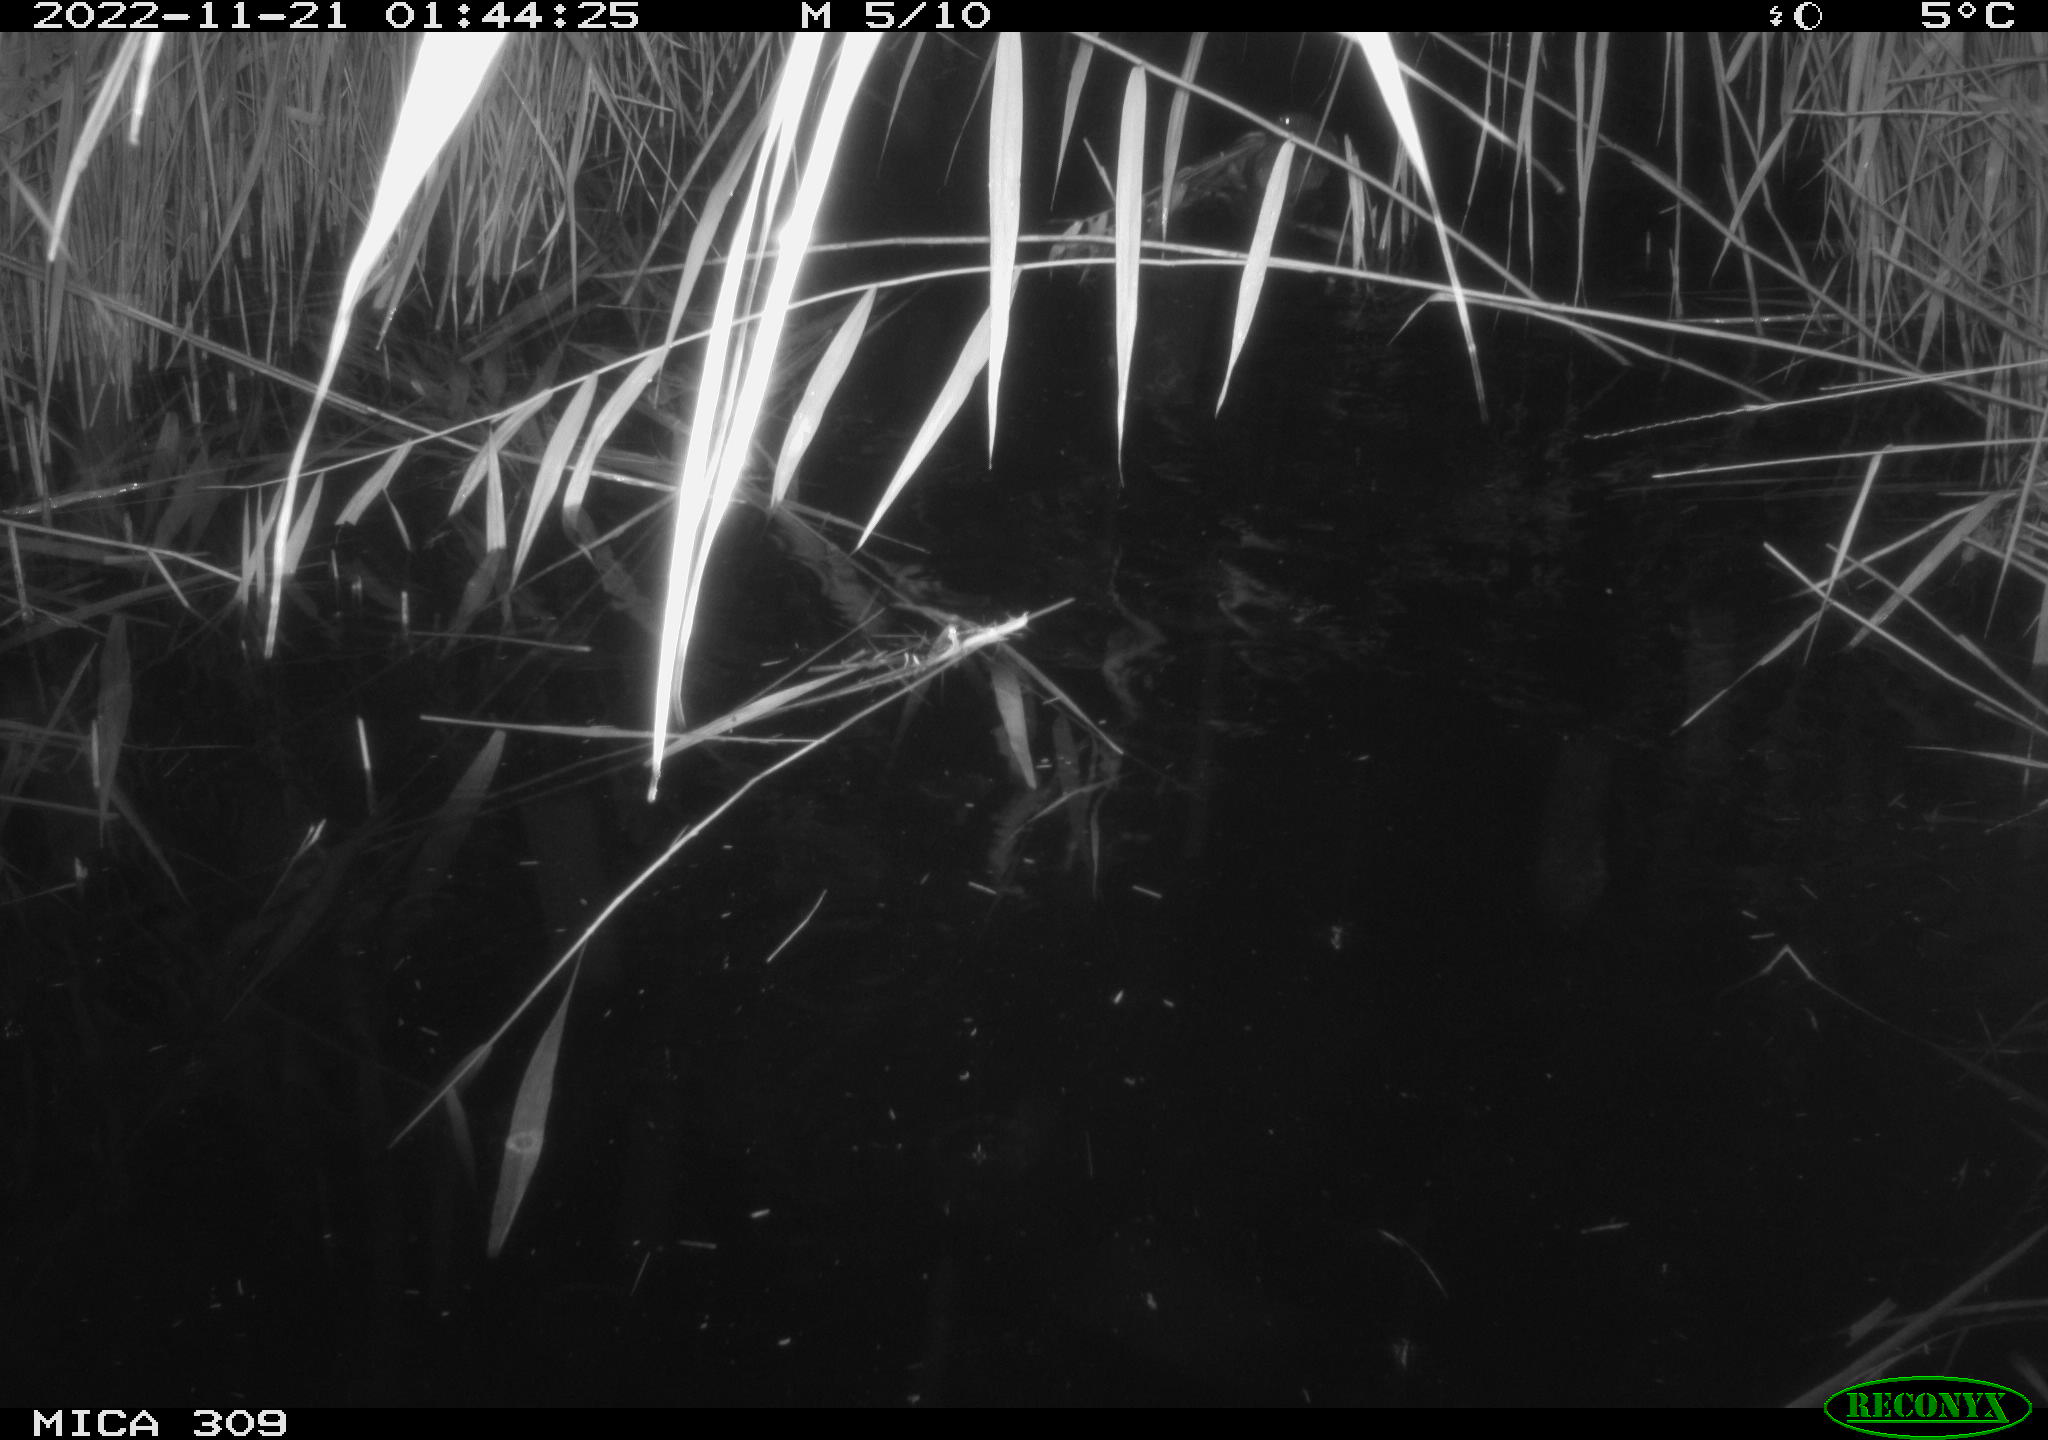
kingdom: Animalia
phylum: Chordata
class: Mammalia
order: Rodentia
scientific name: Rodentia
